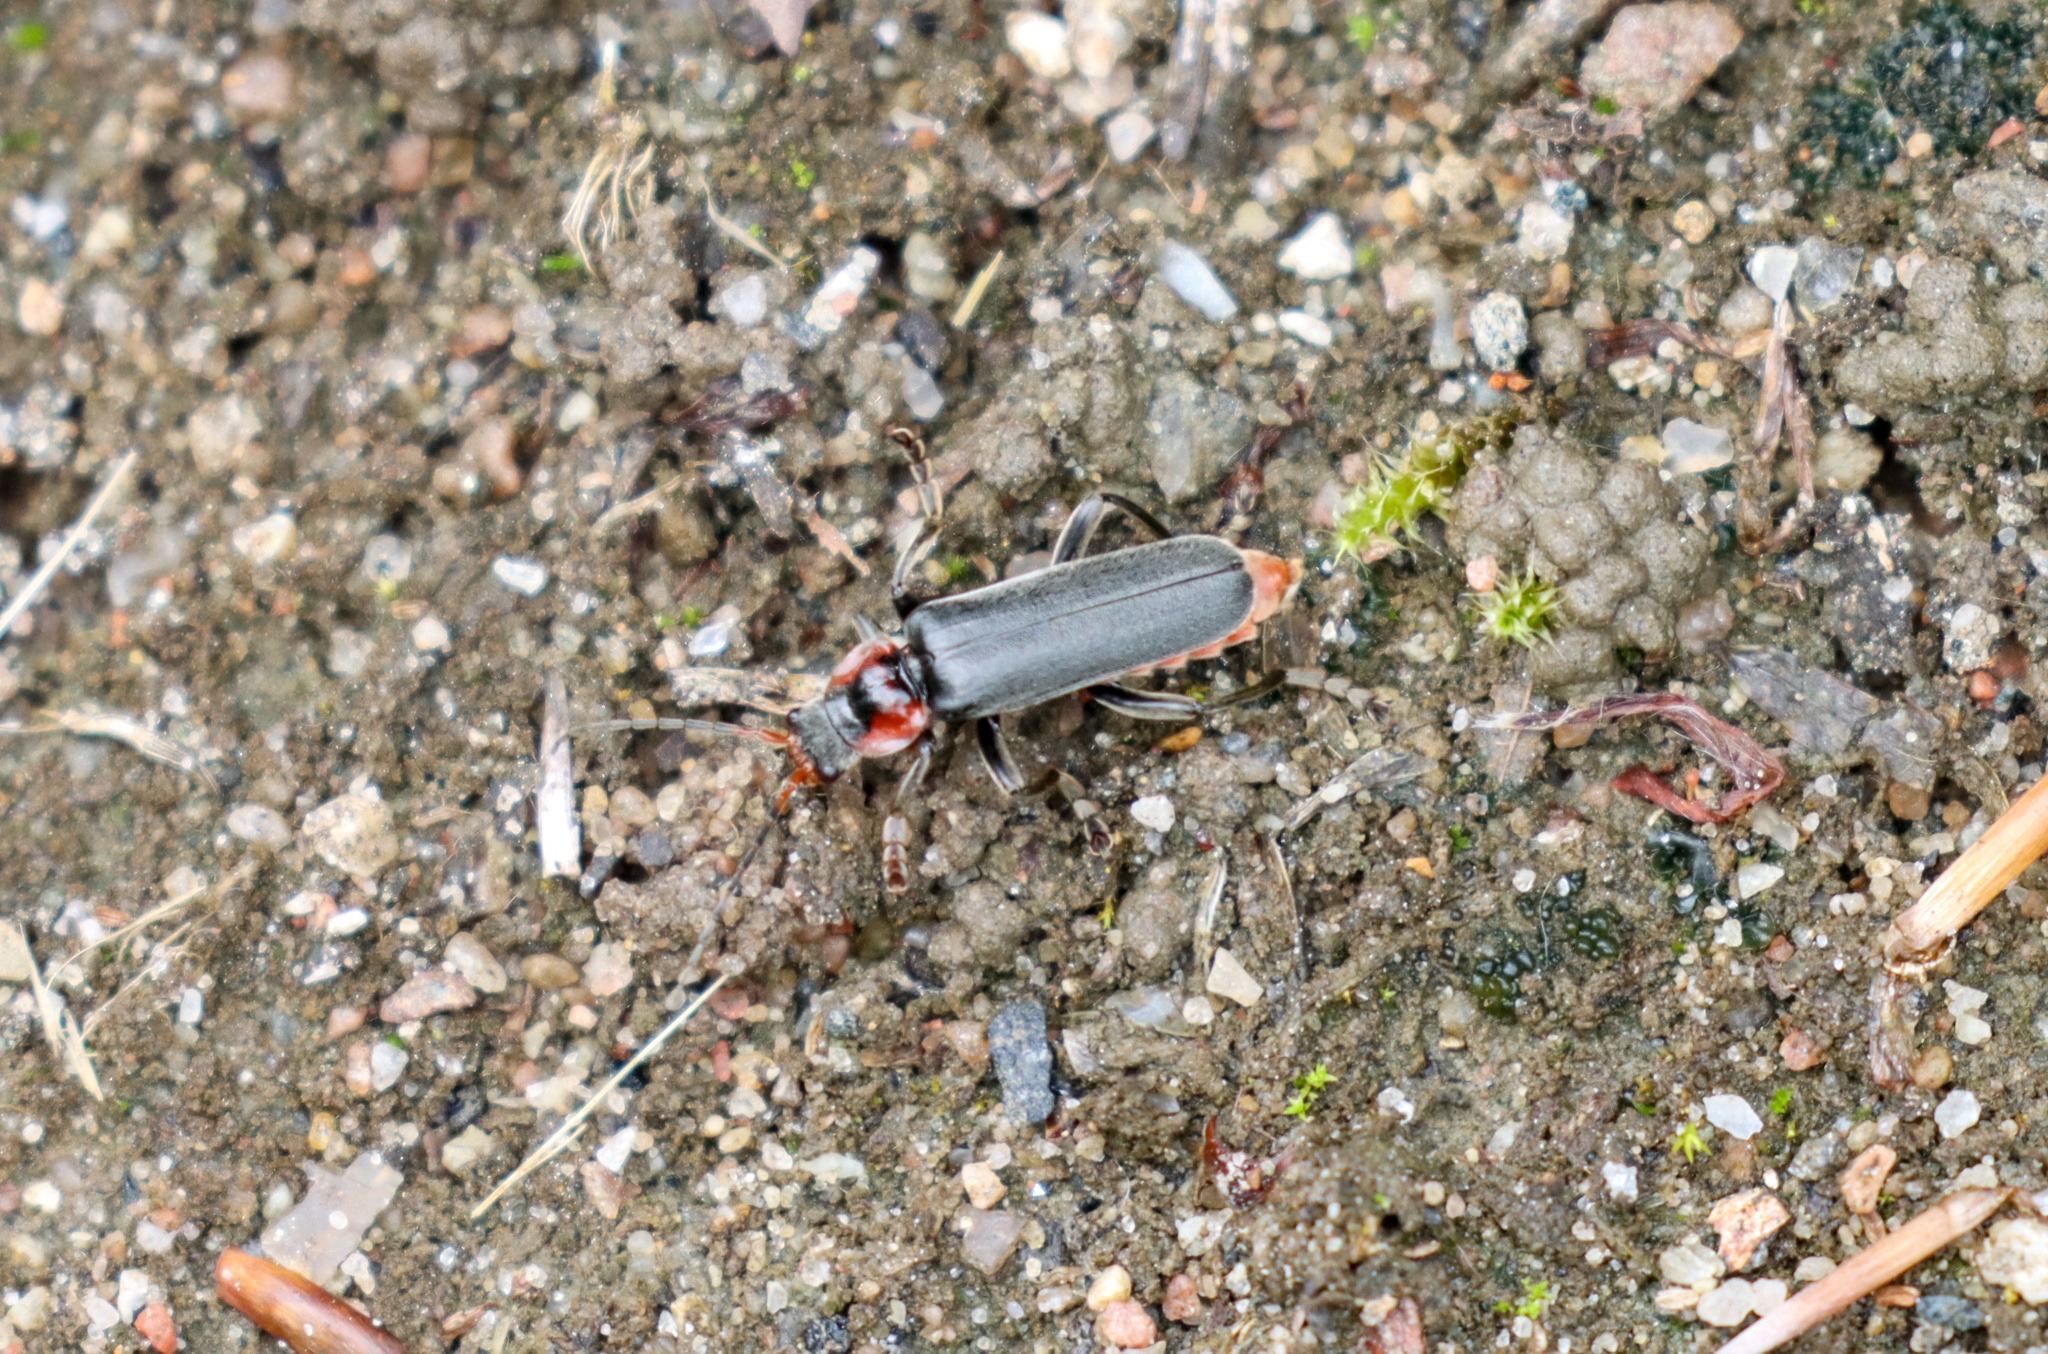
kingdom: Animalia
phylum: Arthropoda
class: Insecta
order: Coleoptera
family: Cantharidae
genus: Cantharis
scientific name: Cantharis fusca
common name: Stor blødvinge
